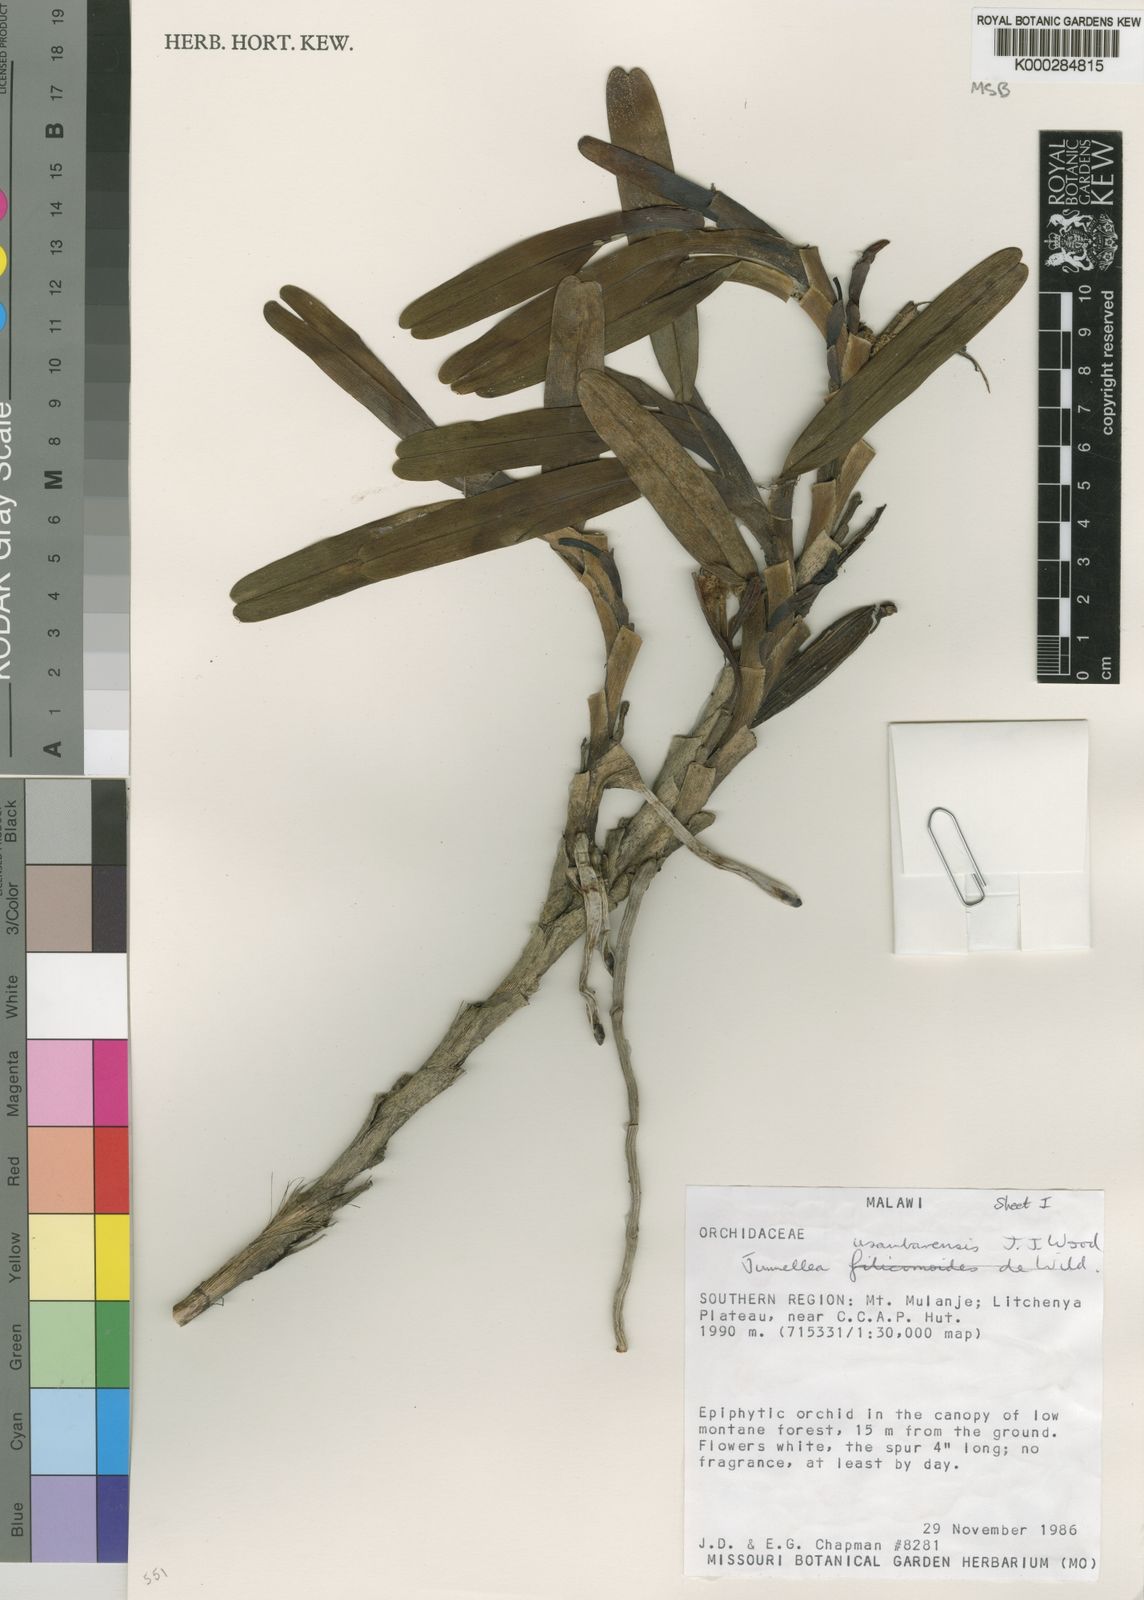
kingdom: Plantae
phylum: Tracheophyta
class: Liliopsida
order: Asparagales
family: Orchidaceae
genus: Jumellea
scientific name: Jumellea usambarensis
